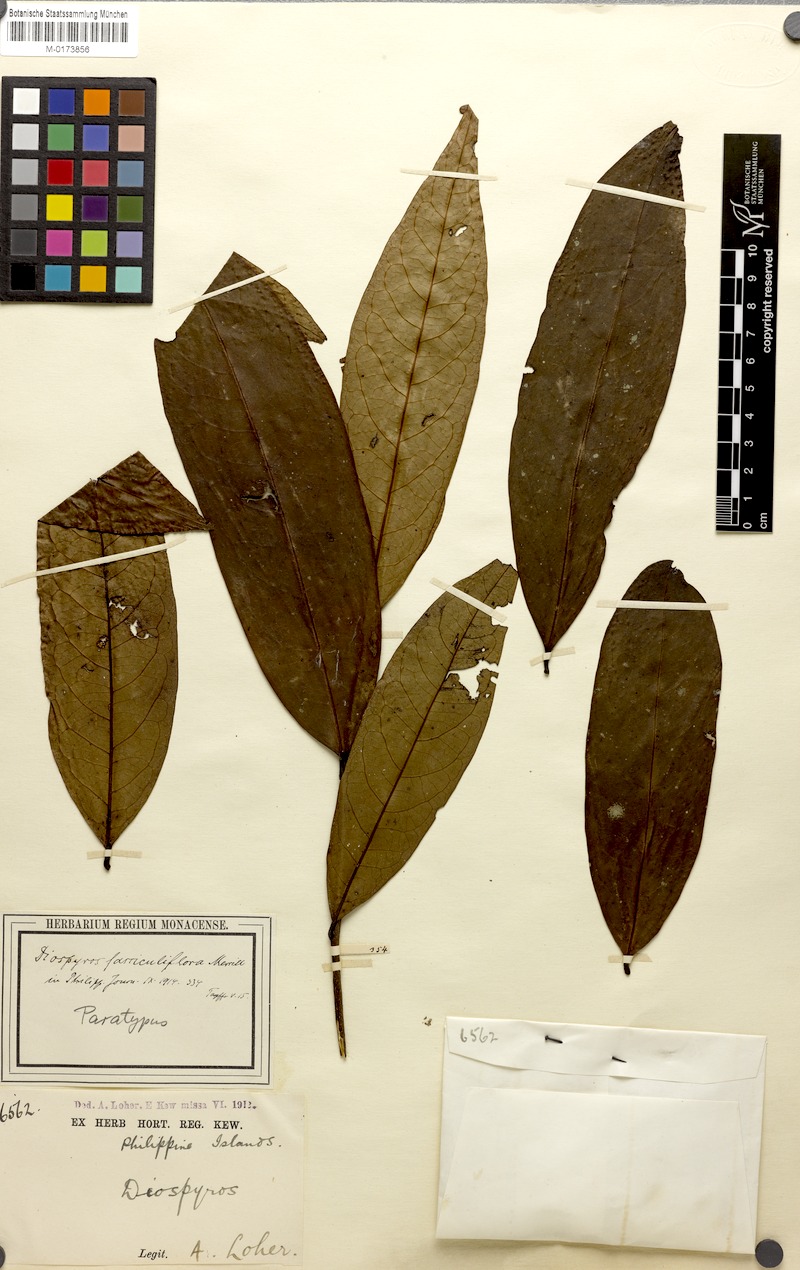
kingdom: Plantae
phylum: Tracheophyta
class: Magnoliopsida
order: Ericales
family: Ebenaceae
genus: Diospyros
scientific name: Diospyros cauliflora
